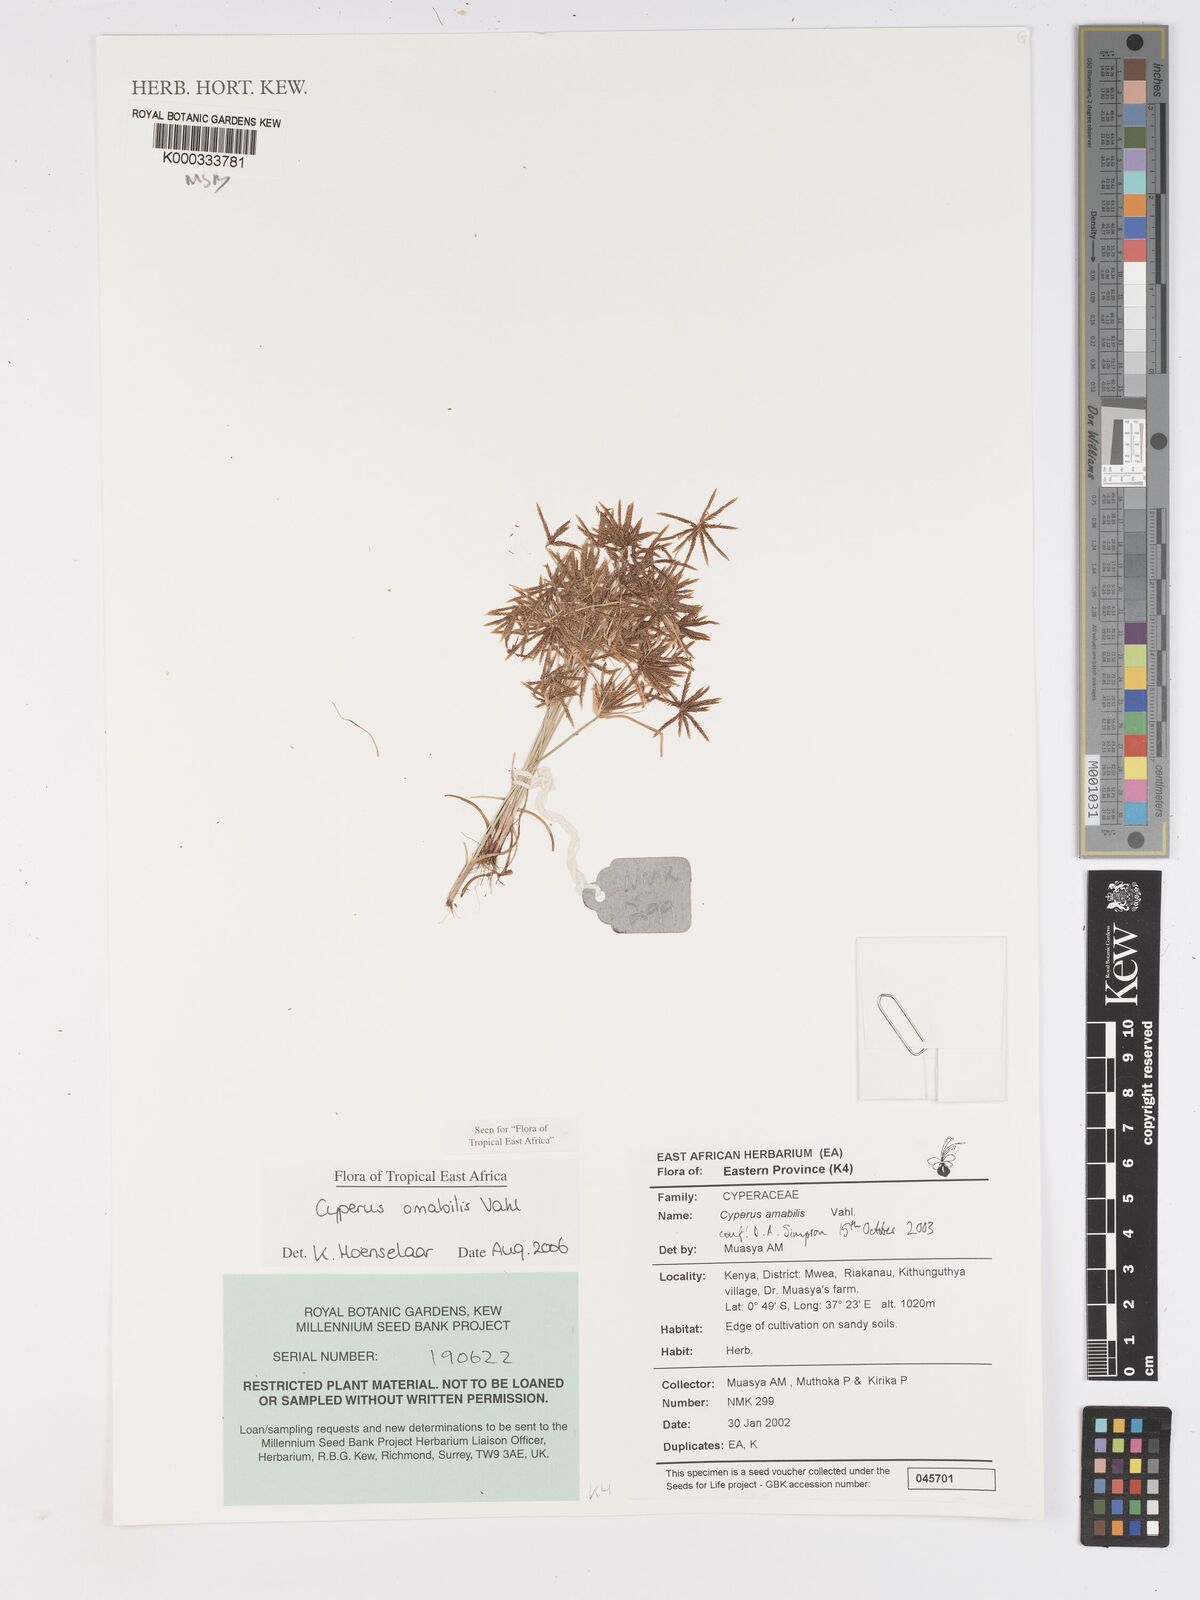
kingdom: Plantae
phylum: Tracheophyta
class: Liliopsida
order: Poales
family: Cyperaceae
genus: Cyperus
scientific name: Cyperus amabilis
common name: Foothill flat sedge
